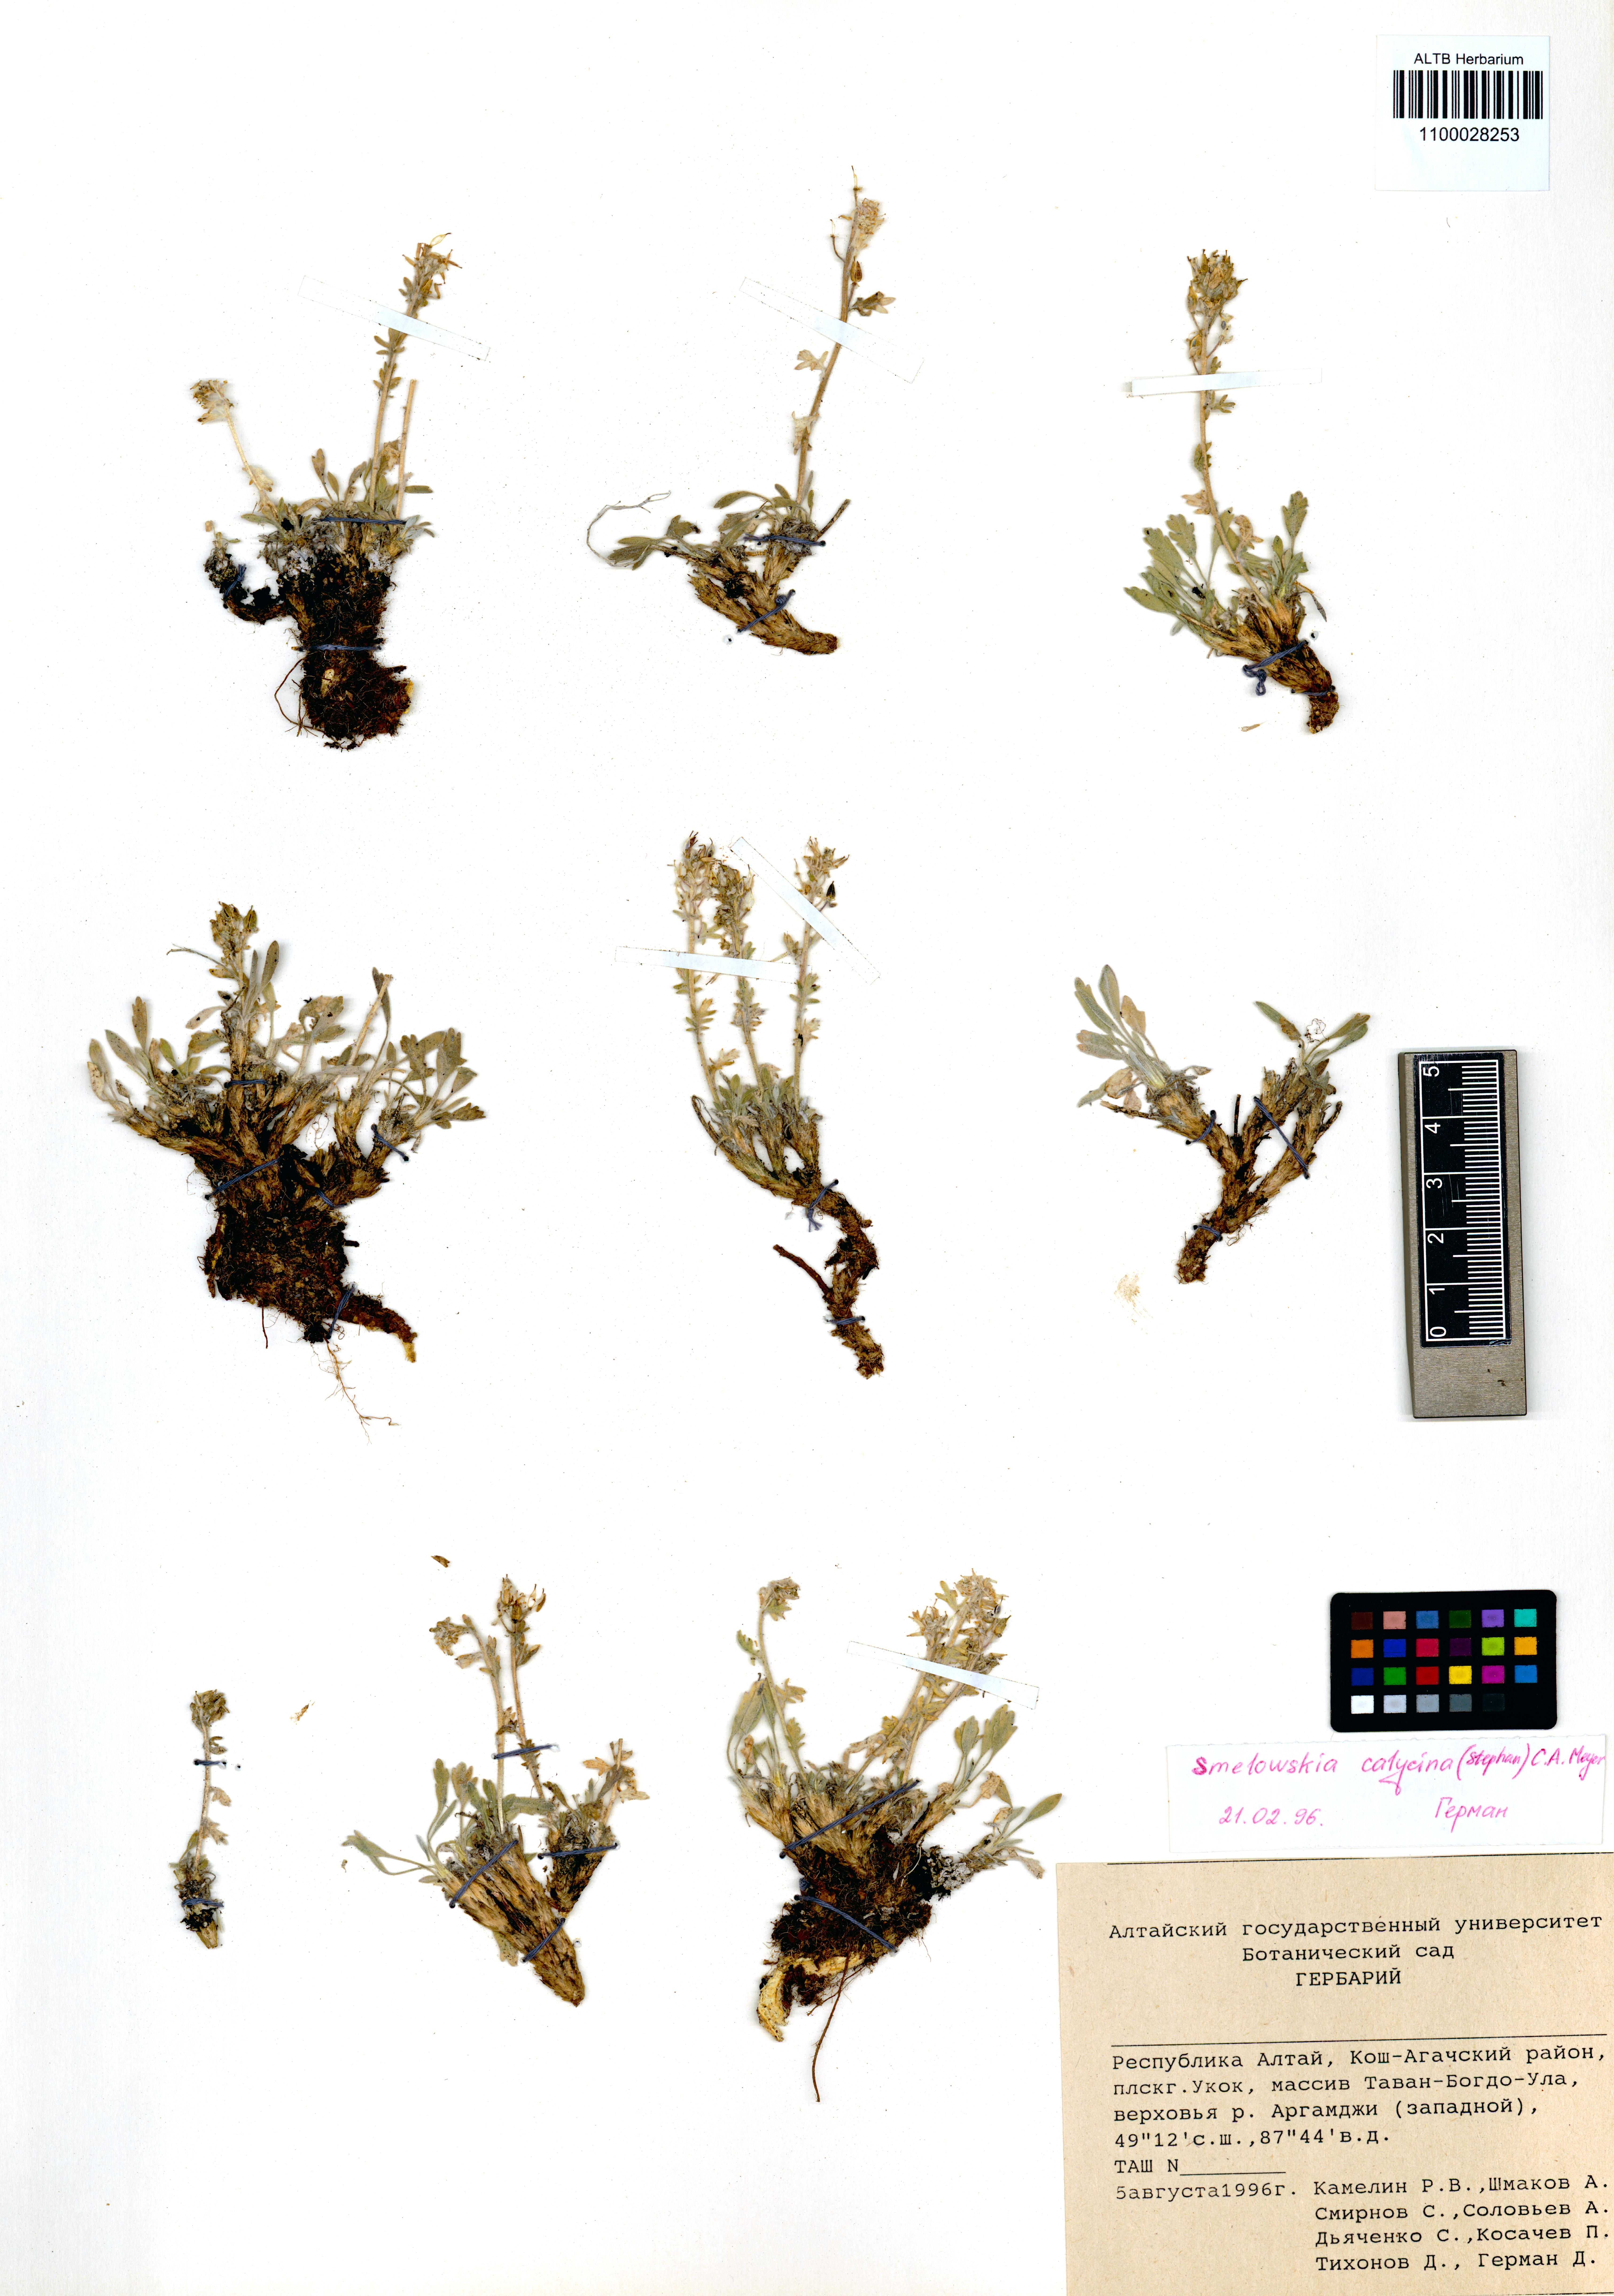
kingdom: Plantae
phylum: Tracheophyta
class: Magnoliopsida
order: Brassicales
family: Brassicaceae
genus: Smelowskia
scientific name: Smelowskia calycina
